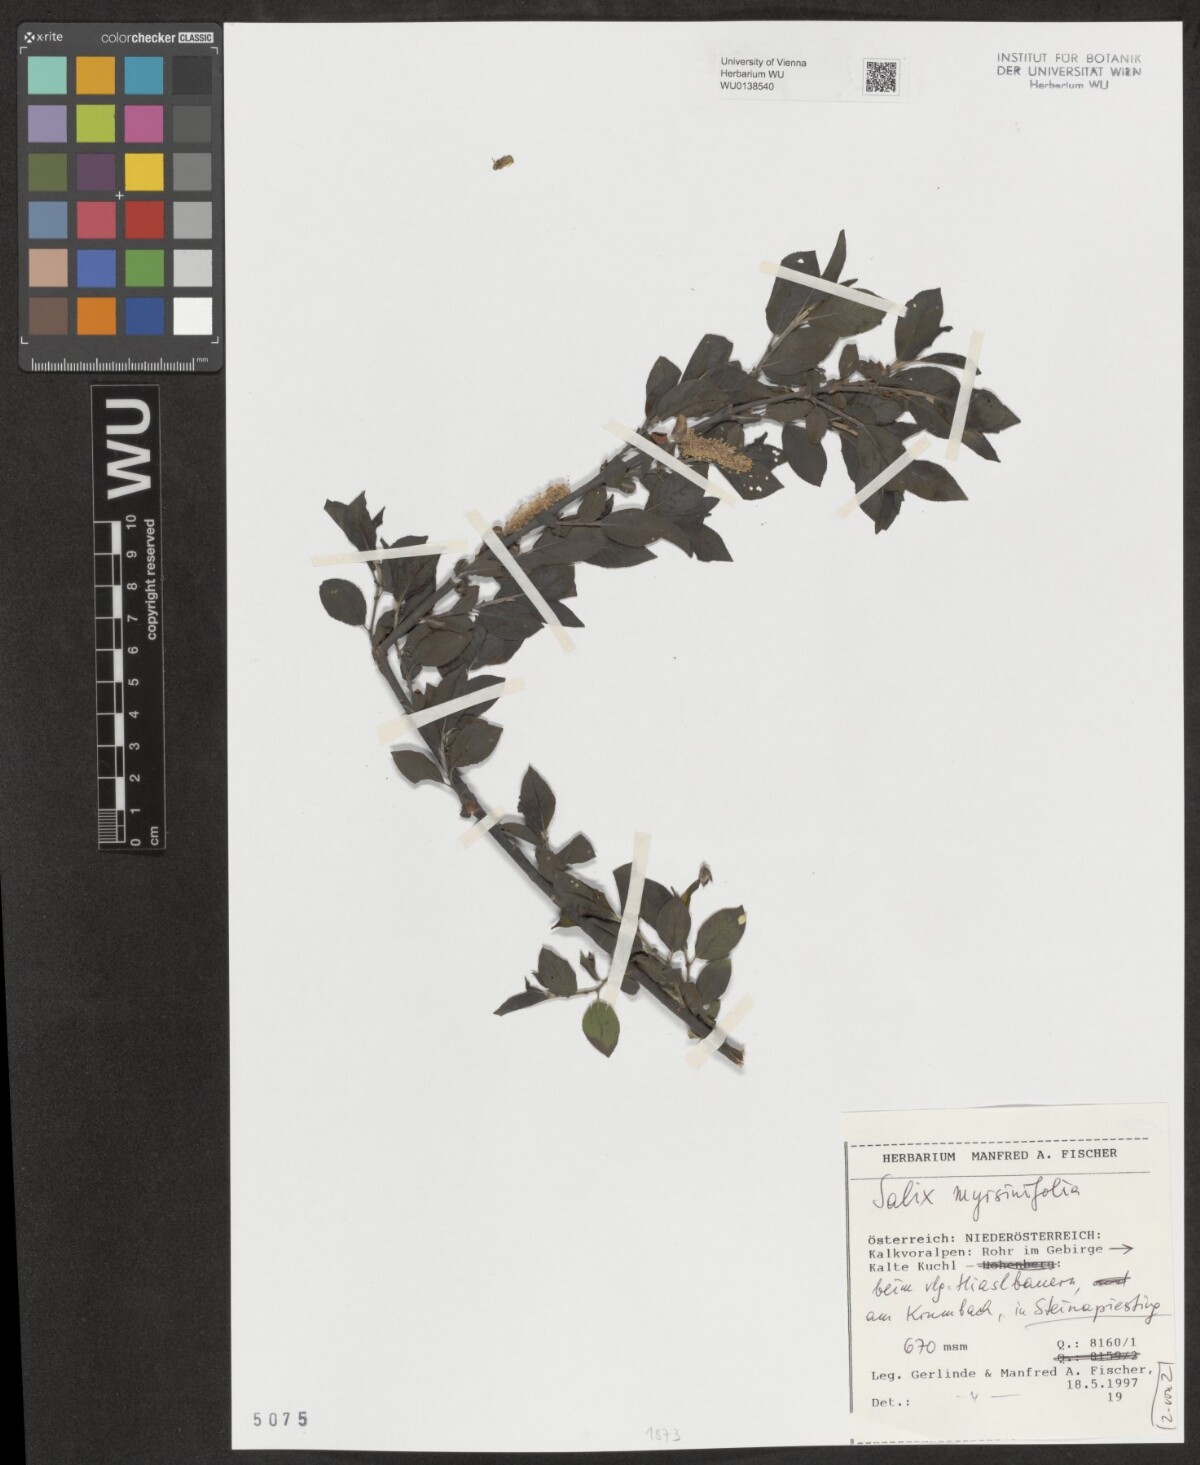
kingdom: Plantae
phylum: Tracheophyta
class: Magnoliopsida
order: Malpighiales
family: Salicaceae
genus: Salix
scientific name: Salix myrsinifolia
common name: Dark-leaved willow
